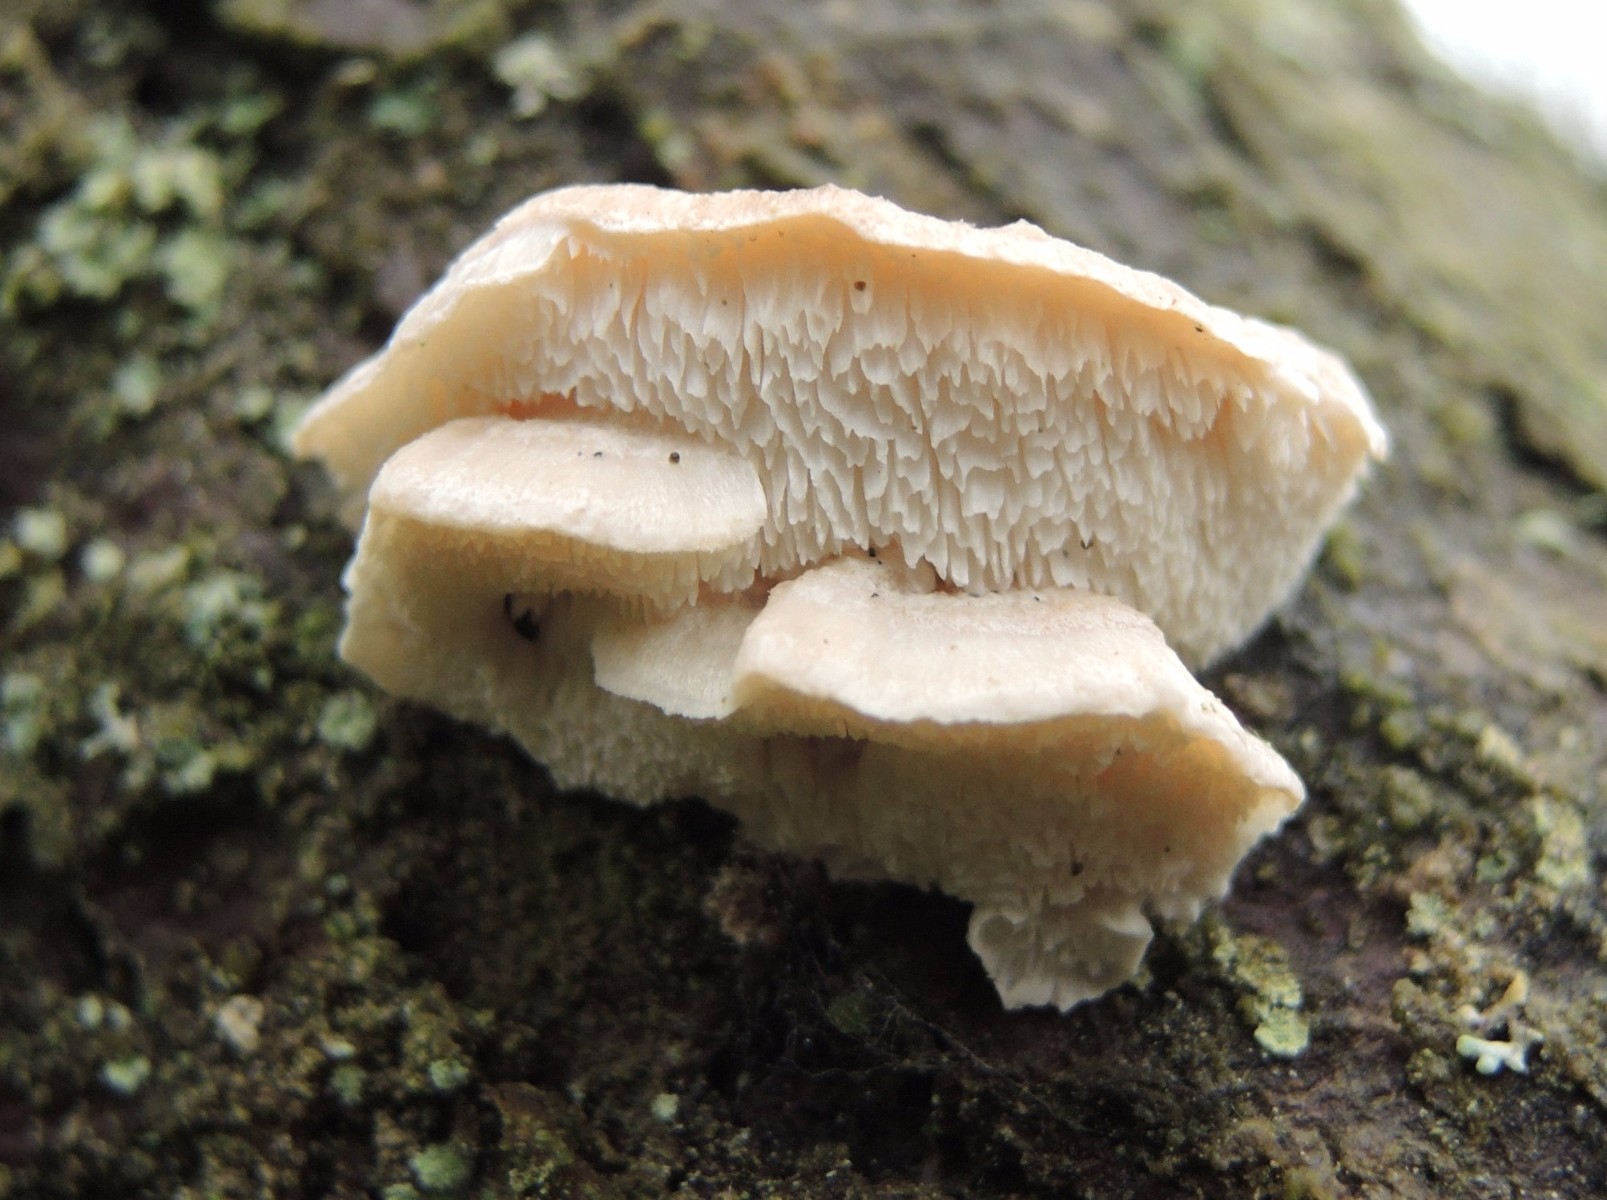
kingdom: Fungi
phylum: Basidiomycota
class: Agaricomycetes
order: Polyporales
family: Incrustoporiaceae
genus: Tyromyces
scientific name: Tyromyces
